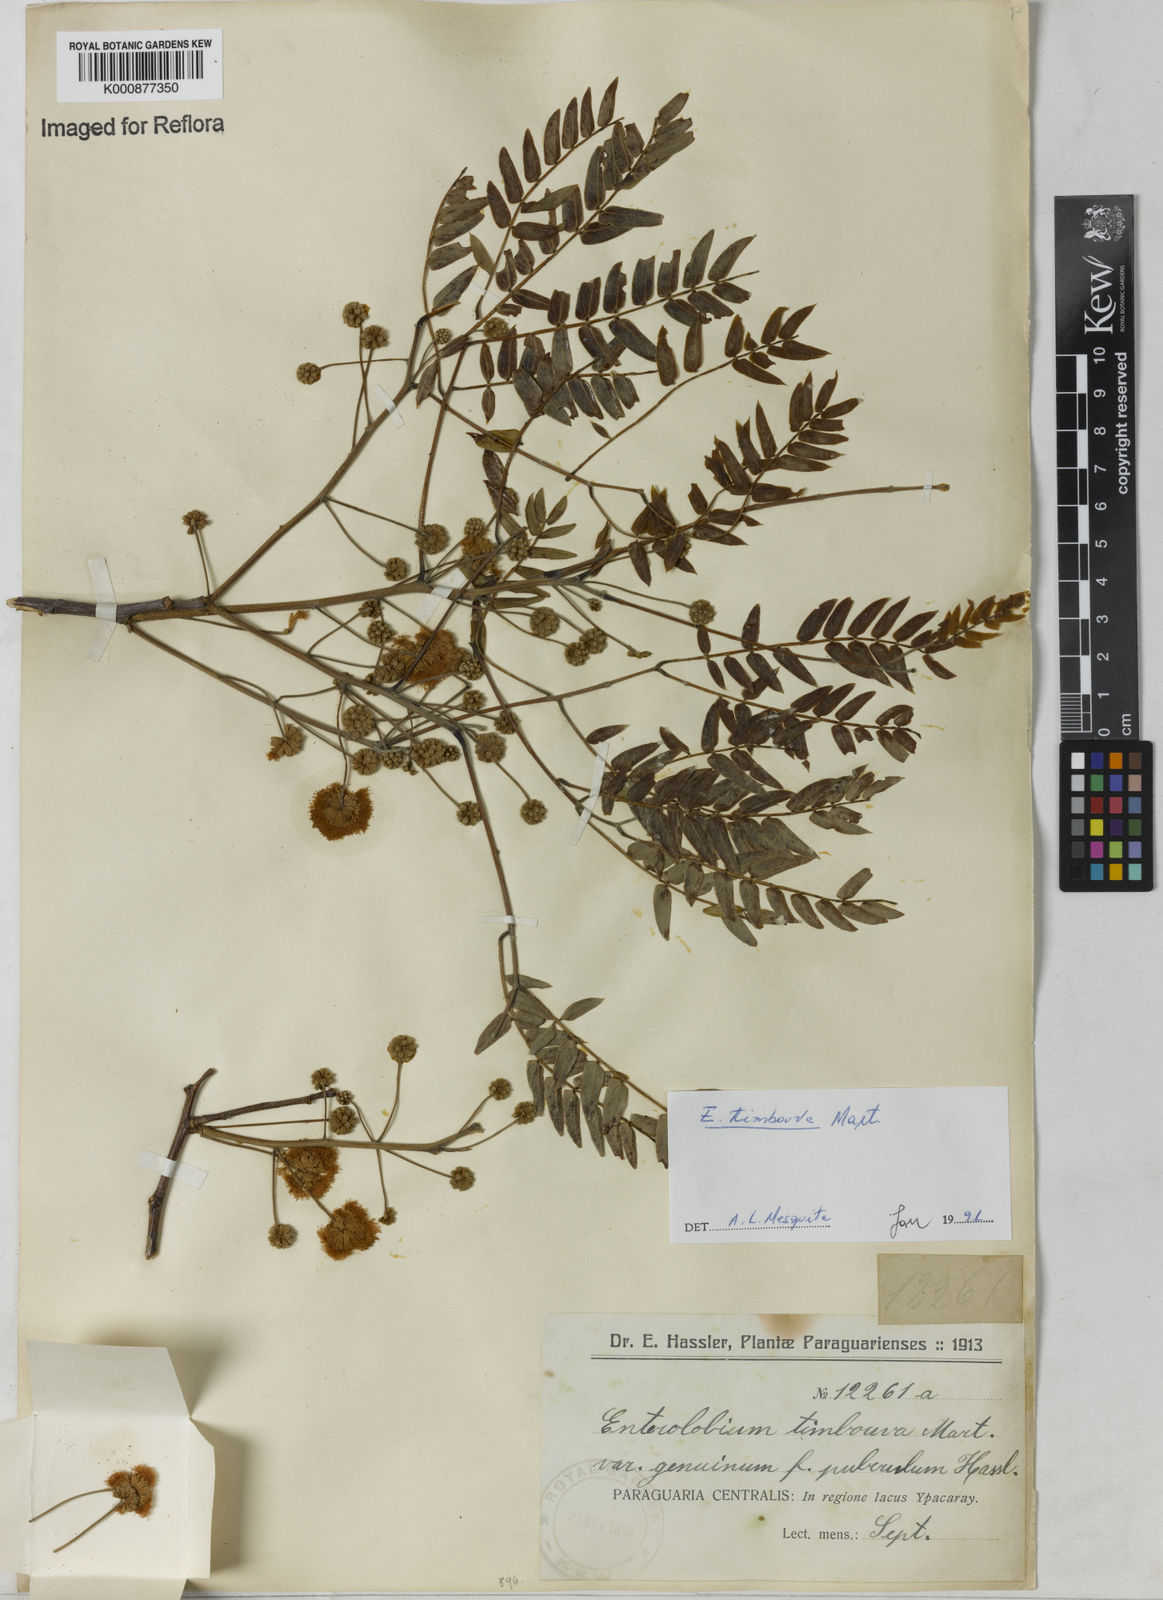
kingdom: Plantae
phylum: Tracheophyta
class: Magnoliopsida
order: Fabales
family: Fabaceae
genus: Enterolobium
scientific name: Enterolobium timbouva
